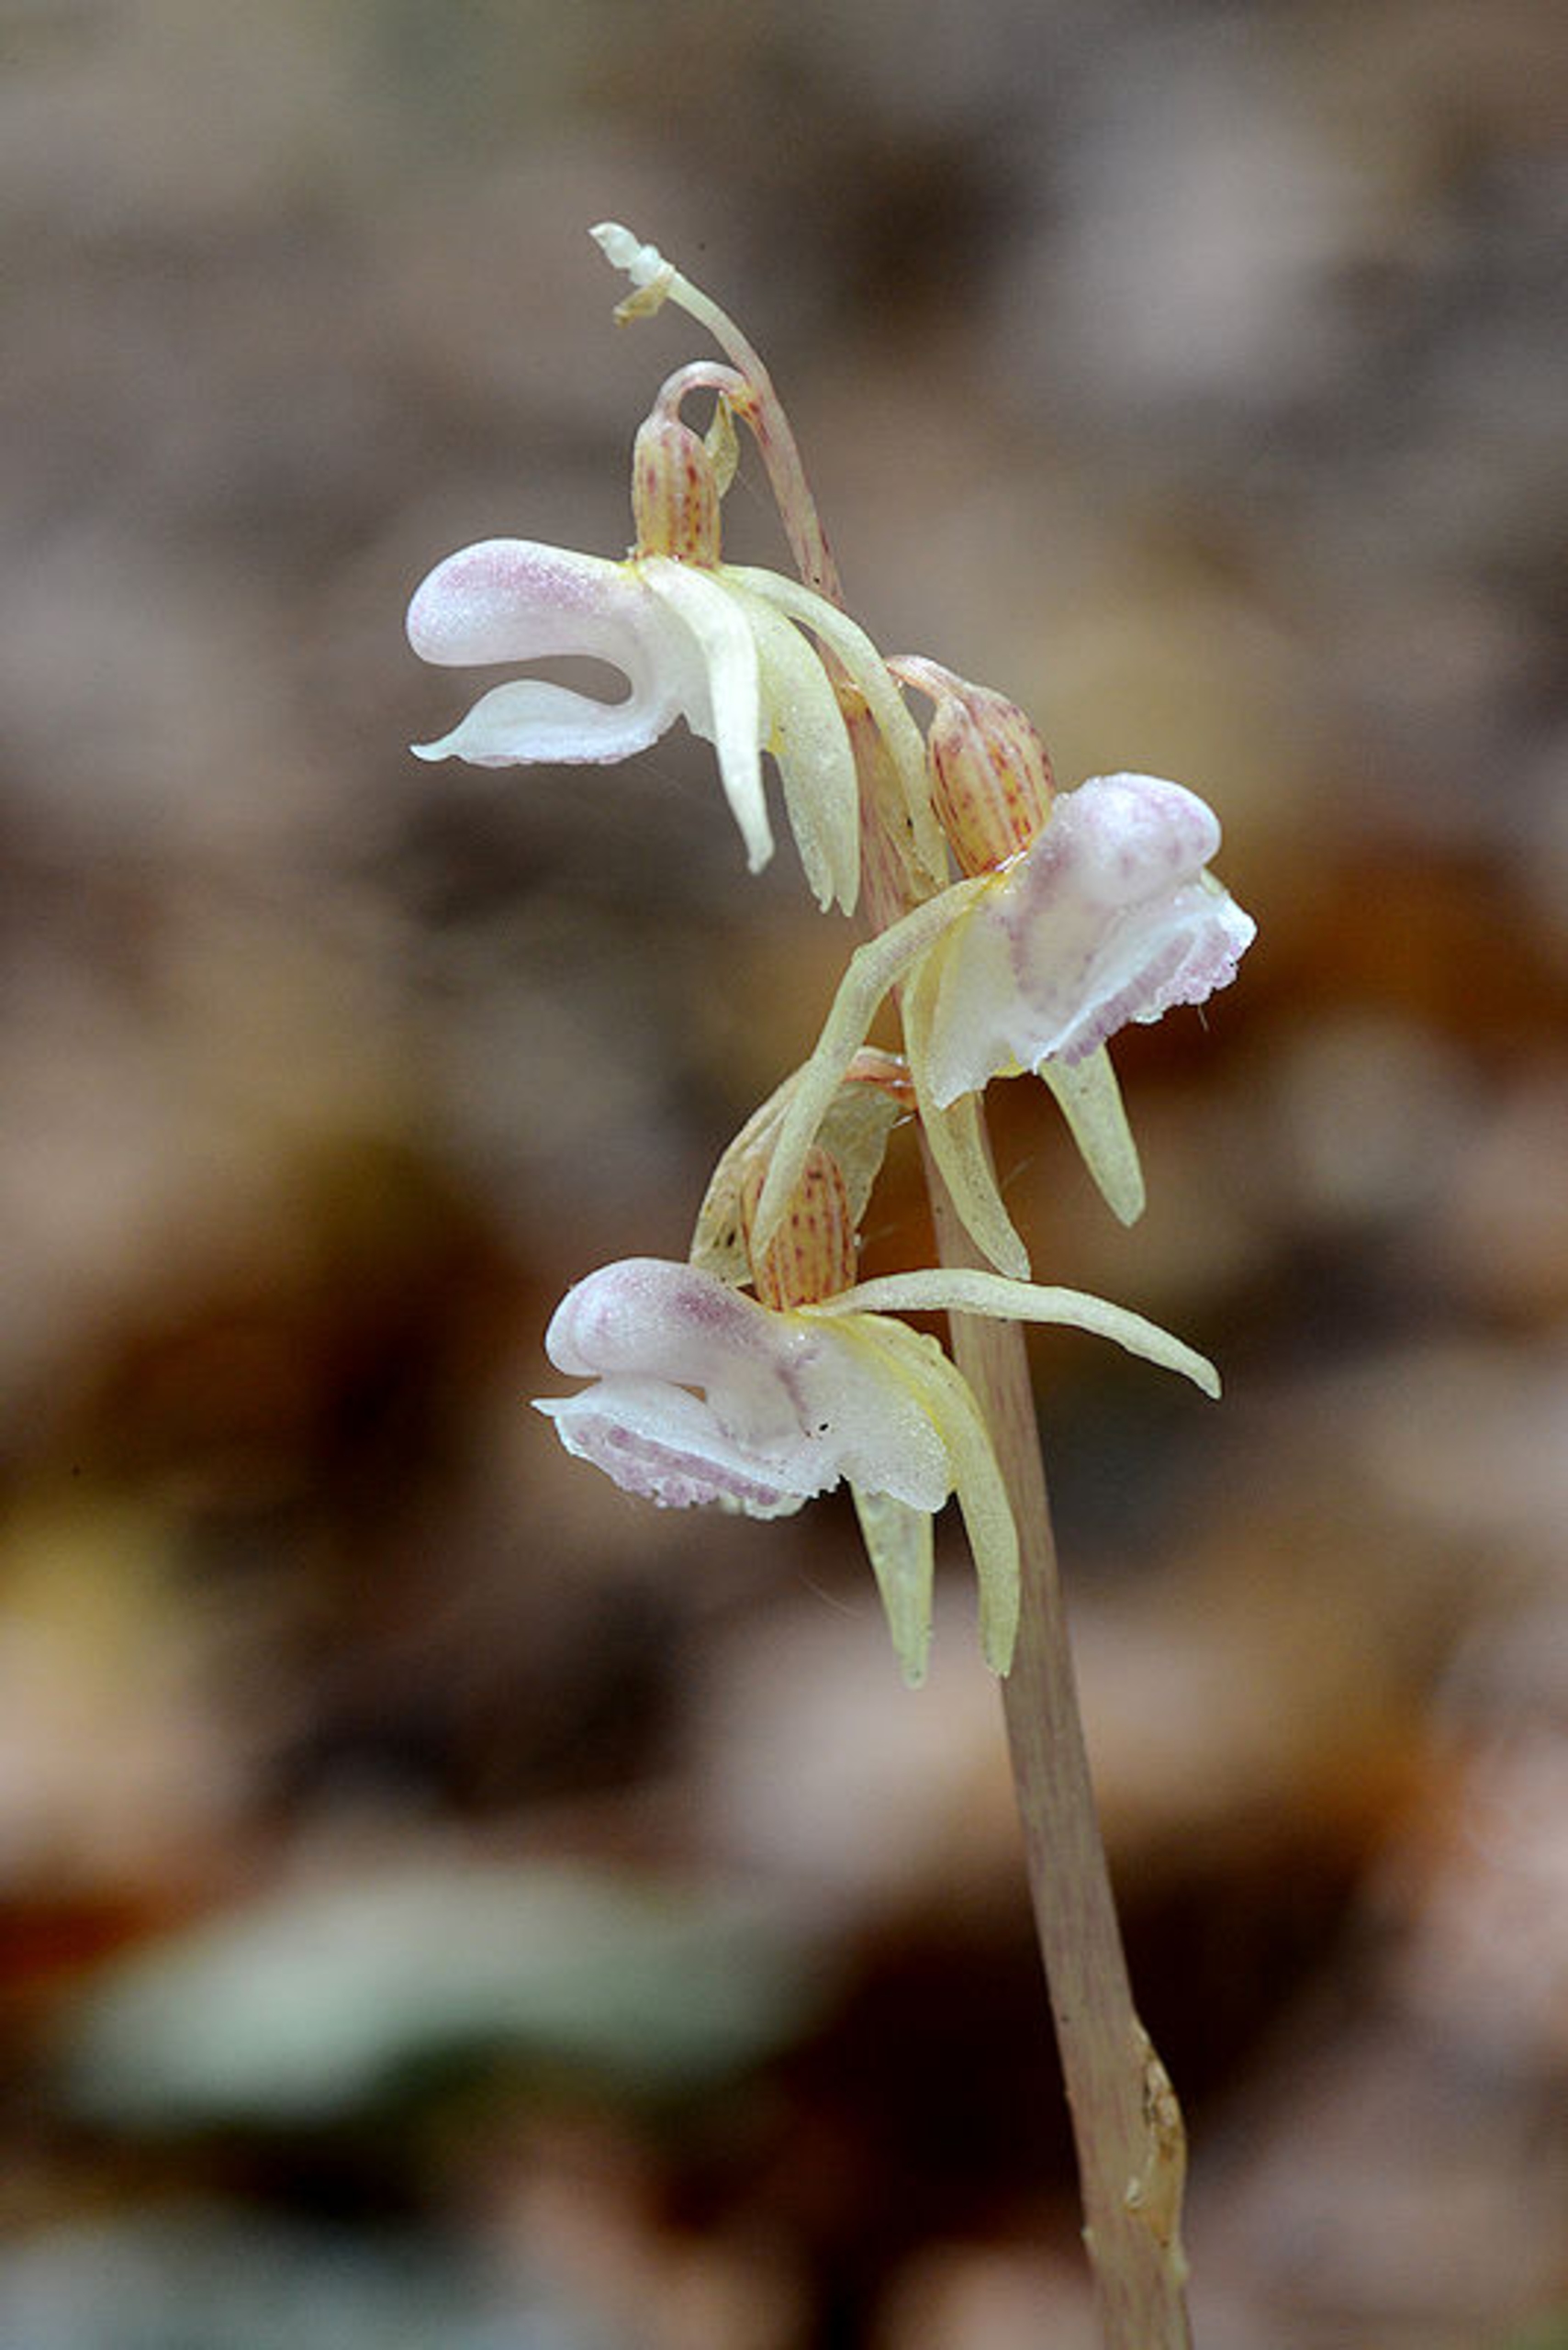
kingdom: Plantae
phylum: Tracheophyta
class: Liliopsida
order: Asparagales
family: Orchidaceae
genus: Epipogium
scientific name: Epipogium aphyllum
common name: Knælæbe
